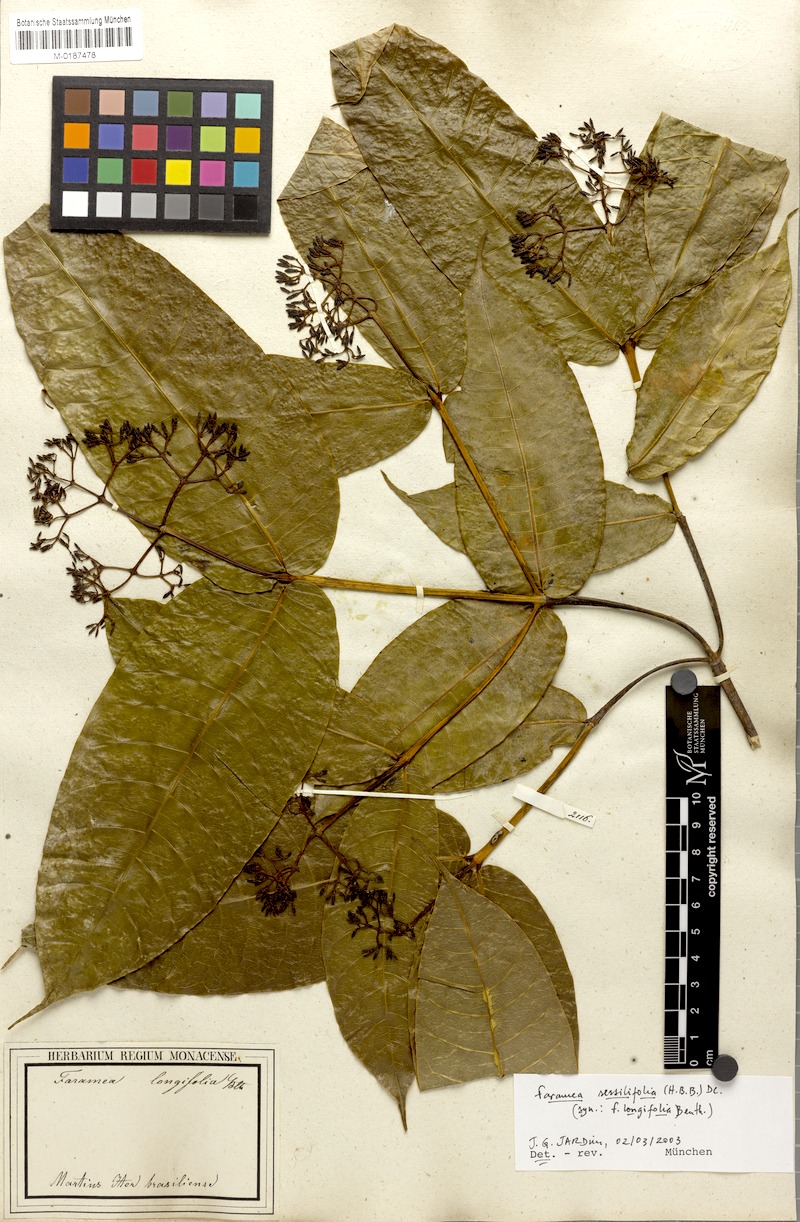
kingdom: Plantae
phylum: Tracheophyta
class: Magnoliopsida
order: Gentianales
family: Rubiaceae
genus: Faramea
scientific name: Faramea sessilifolia
